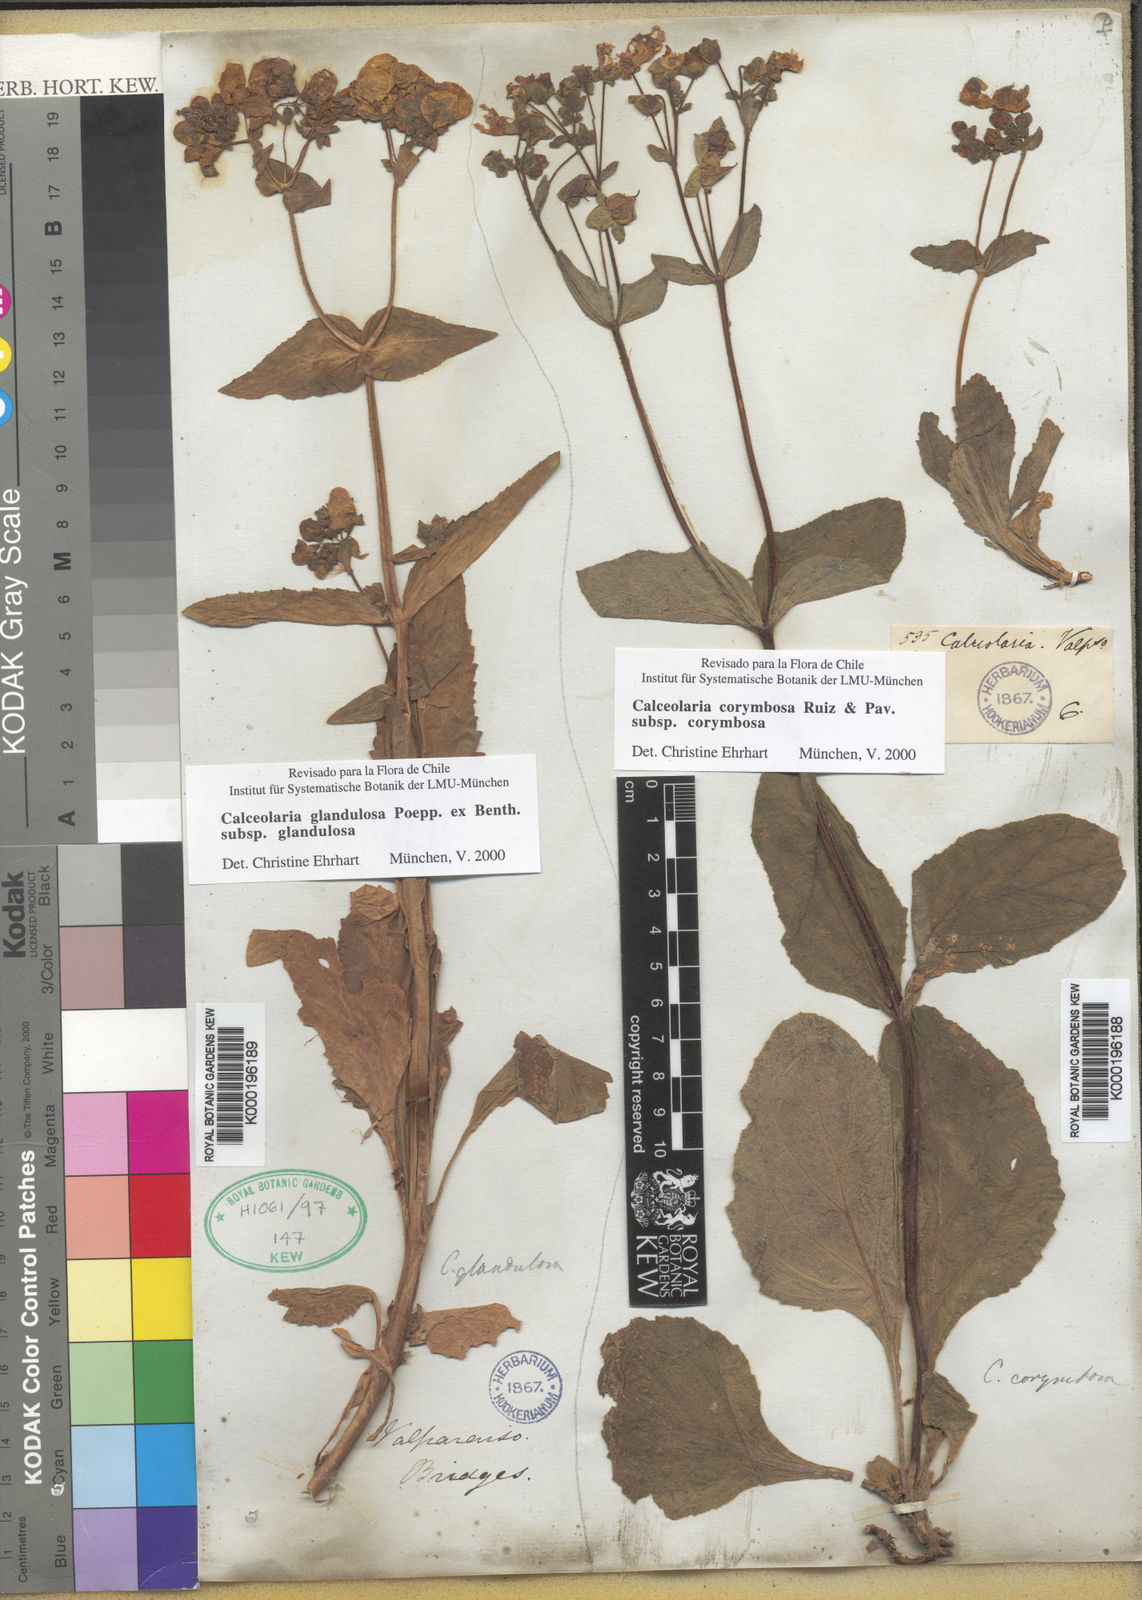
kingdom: Plantae
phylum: Tracheophyta
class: Magnoliopsida
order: Lamiales
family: Calceolariaceae
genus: Calceolaria
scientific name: Calceolaria glandulosa
